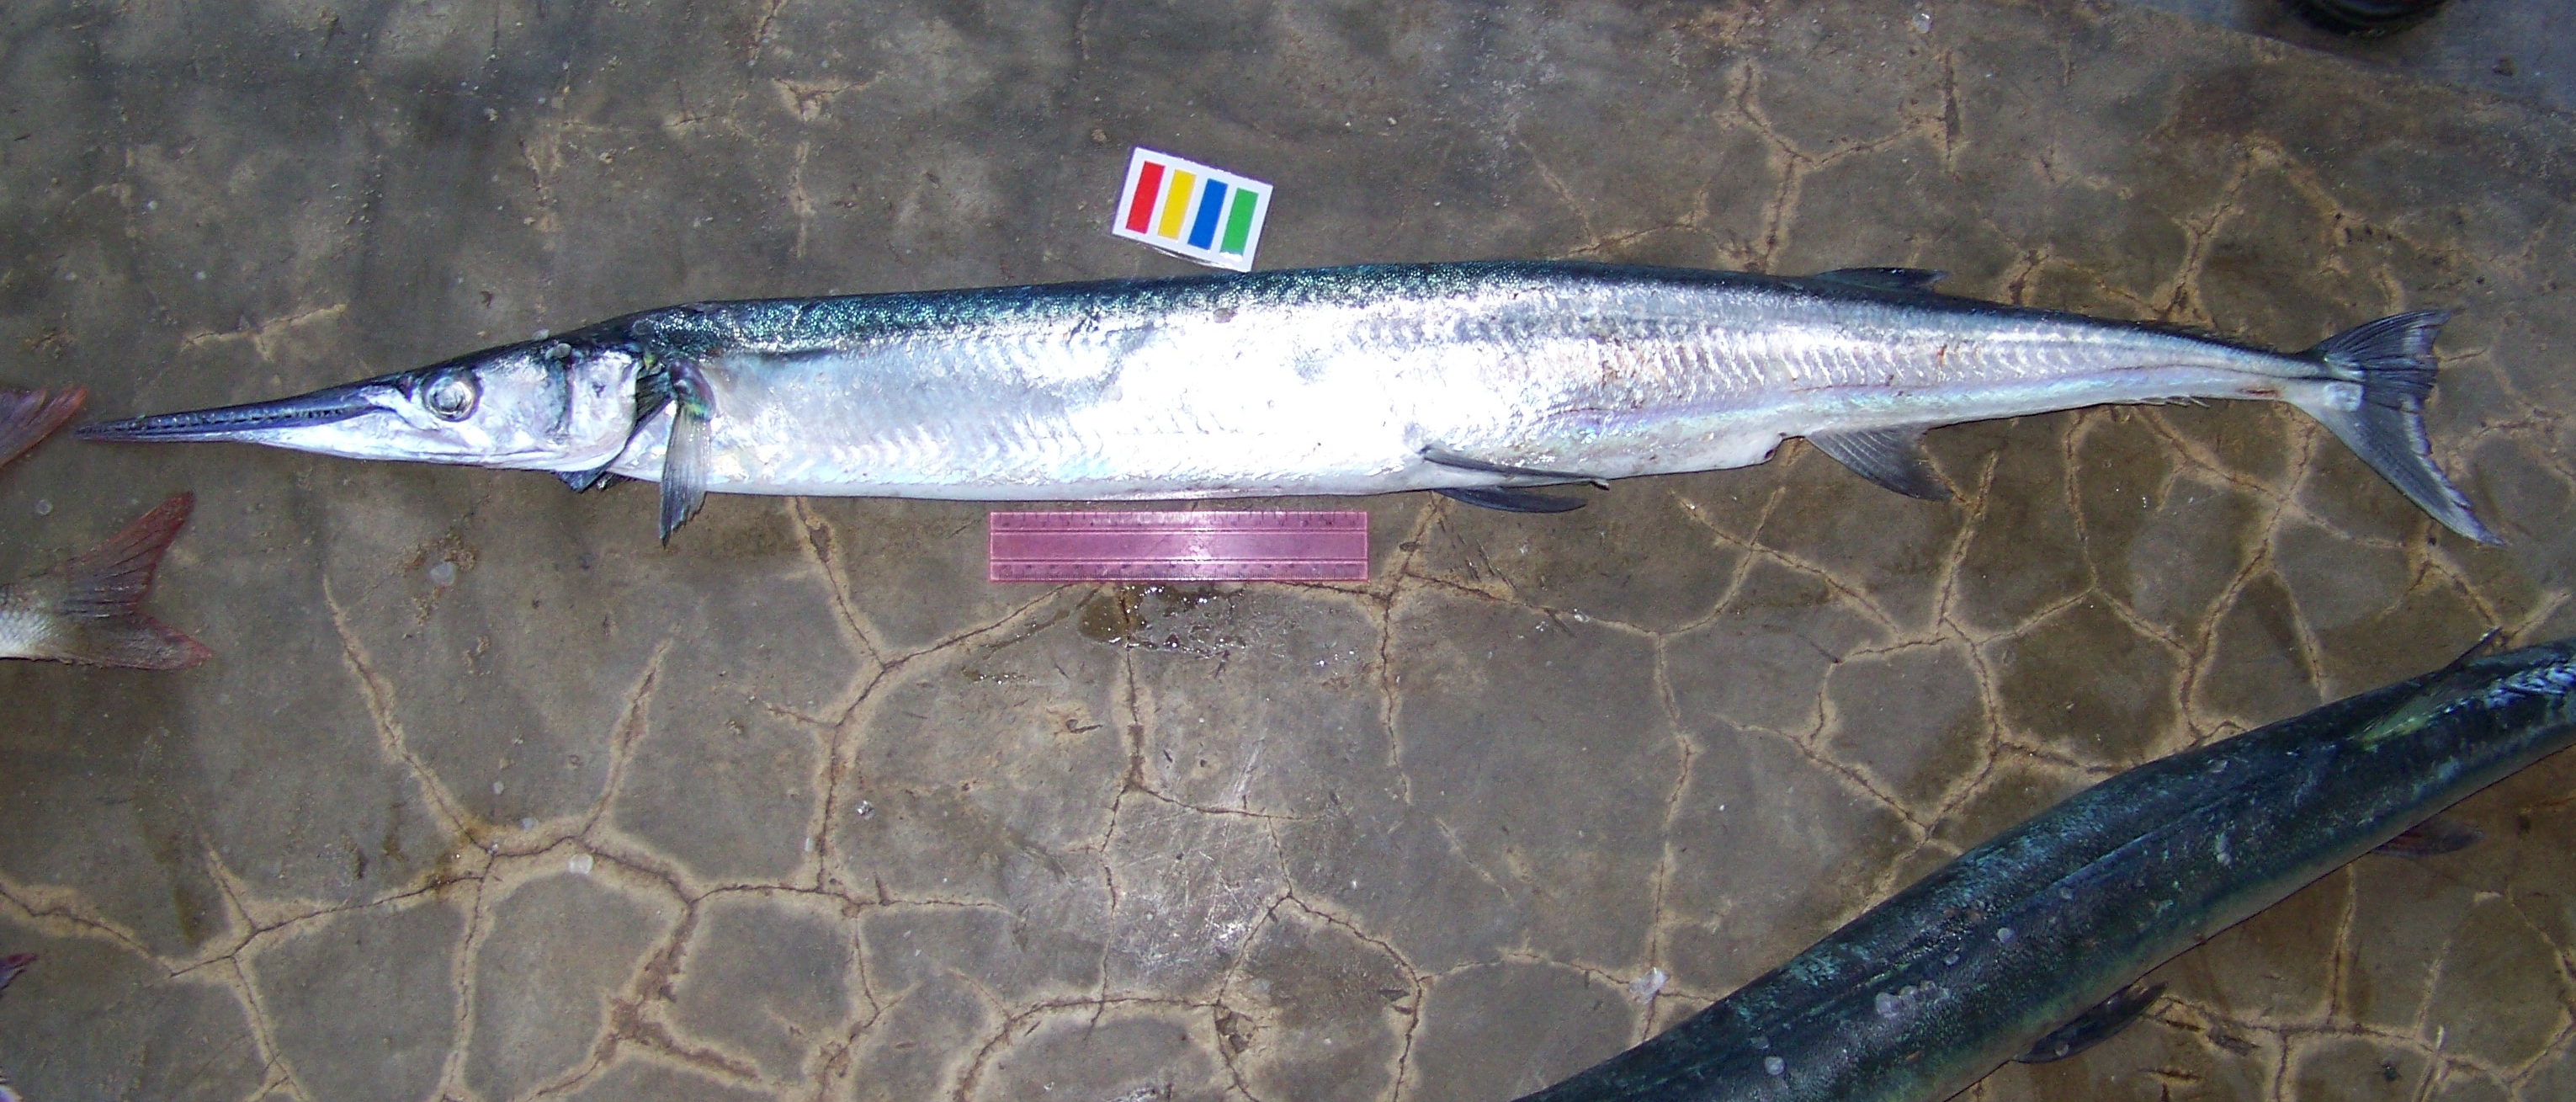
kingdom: Animalia
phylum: Chordata
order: Beloniformes
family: Belonidae
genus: Tylosurus
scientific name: Tylosurus crocodilus
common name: Houndfish
